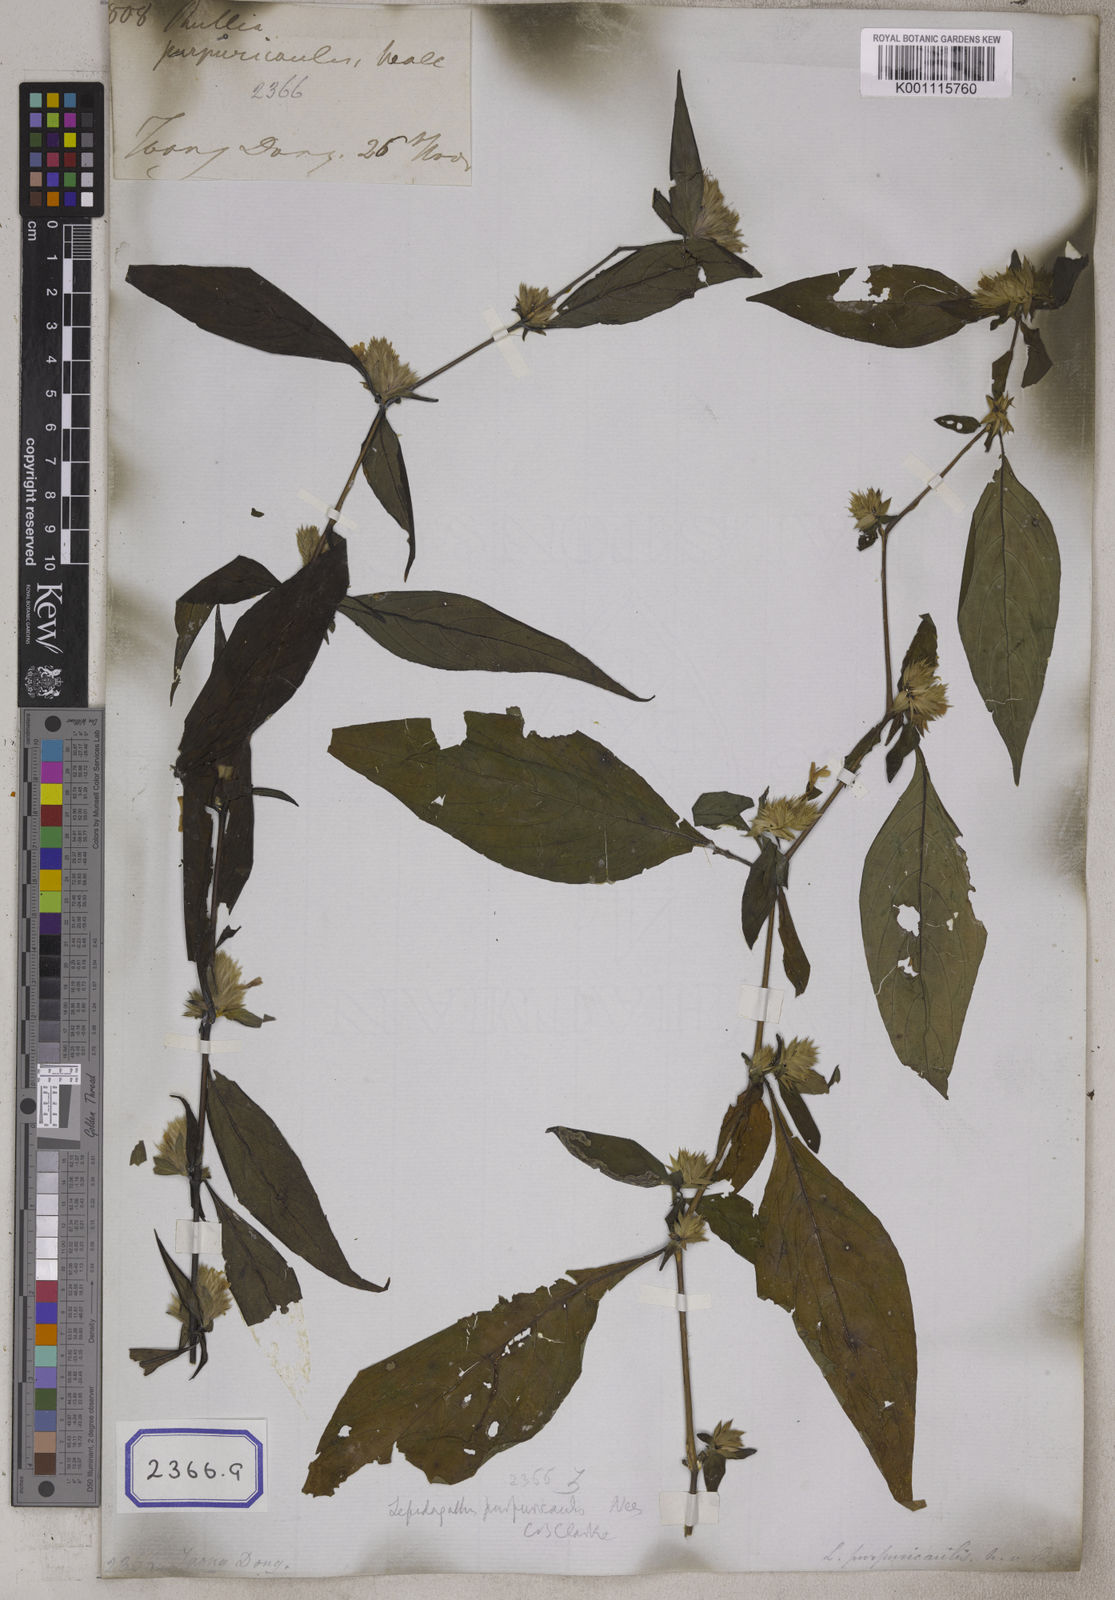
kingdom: Plantae
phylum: Tracheophyta
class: Magnoliopsida
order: Lamiales
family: Acanthaceae
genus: Lepidagathis
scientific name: Lepidagathis purpuricaulis
